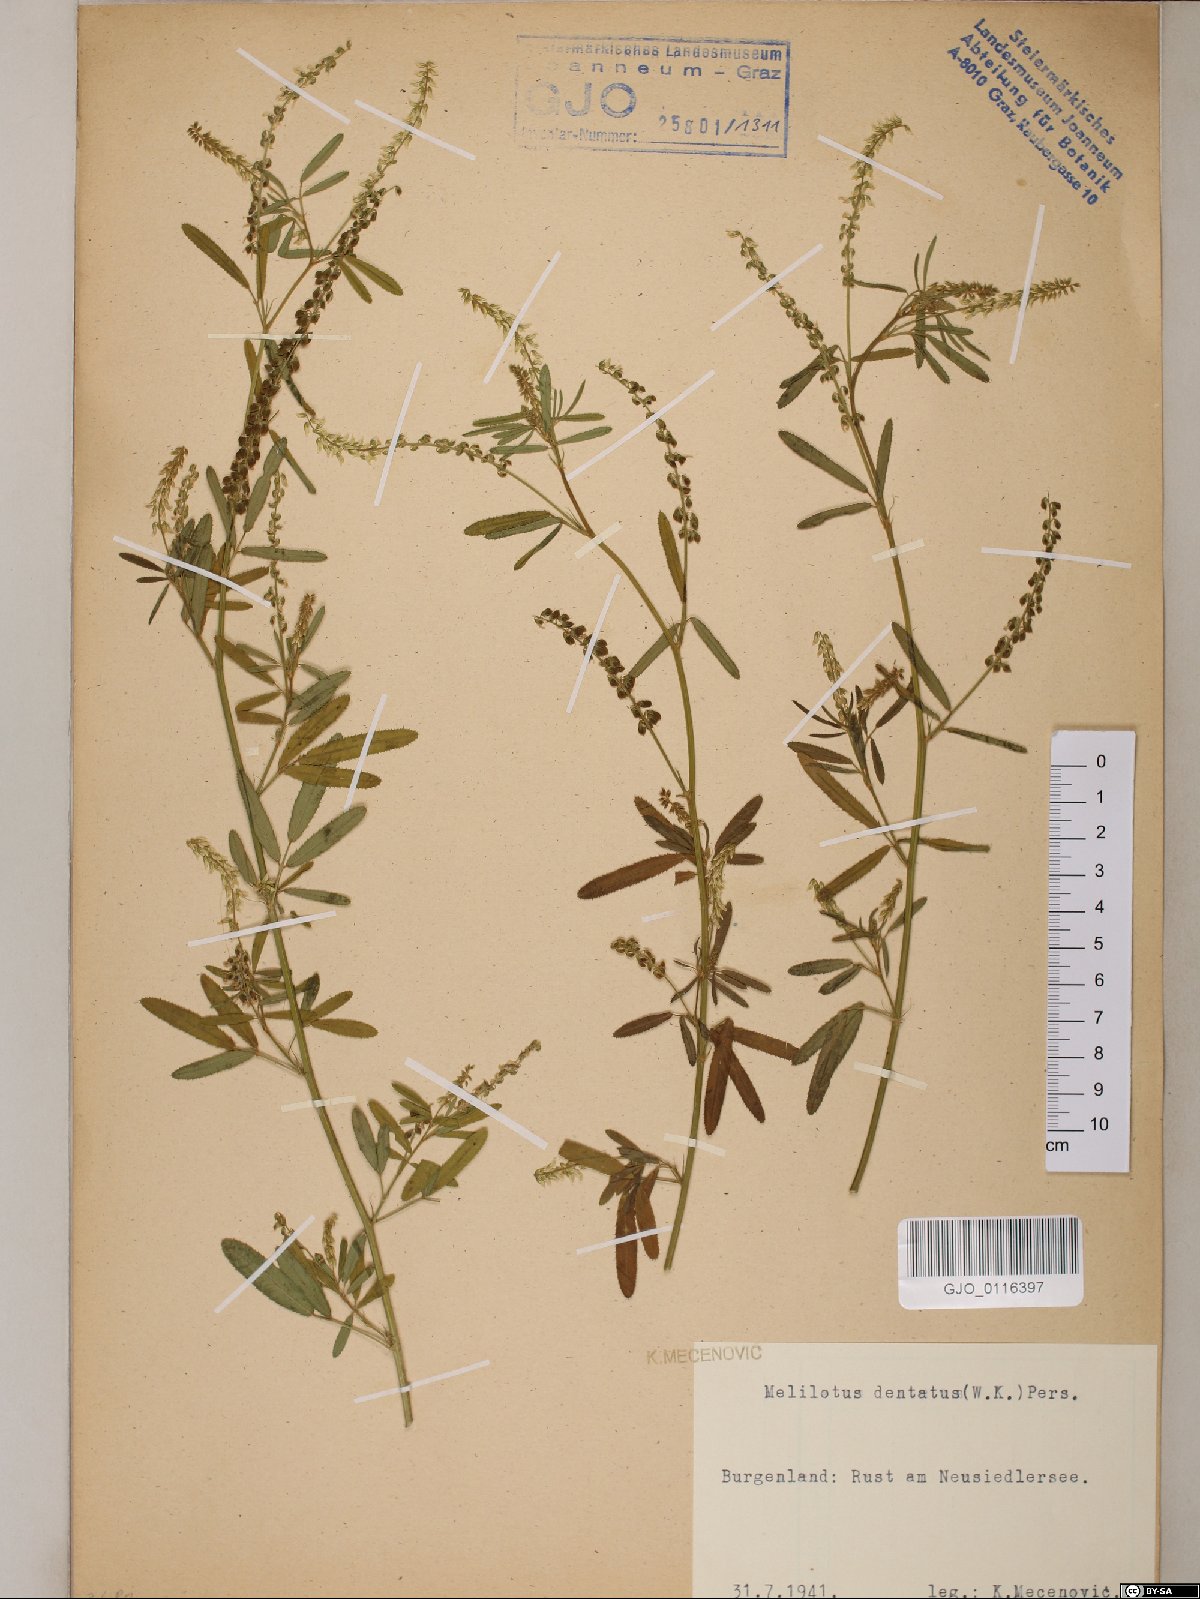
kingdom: Plantae
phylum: Tracheophyta
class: Magnoliopsida
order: Fabales
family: Fabaceae
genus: Melilotus
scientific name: Melilotus dentatus
